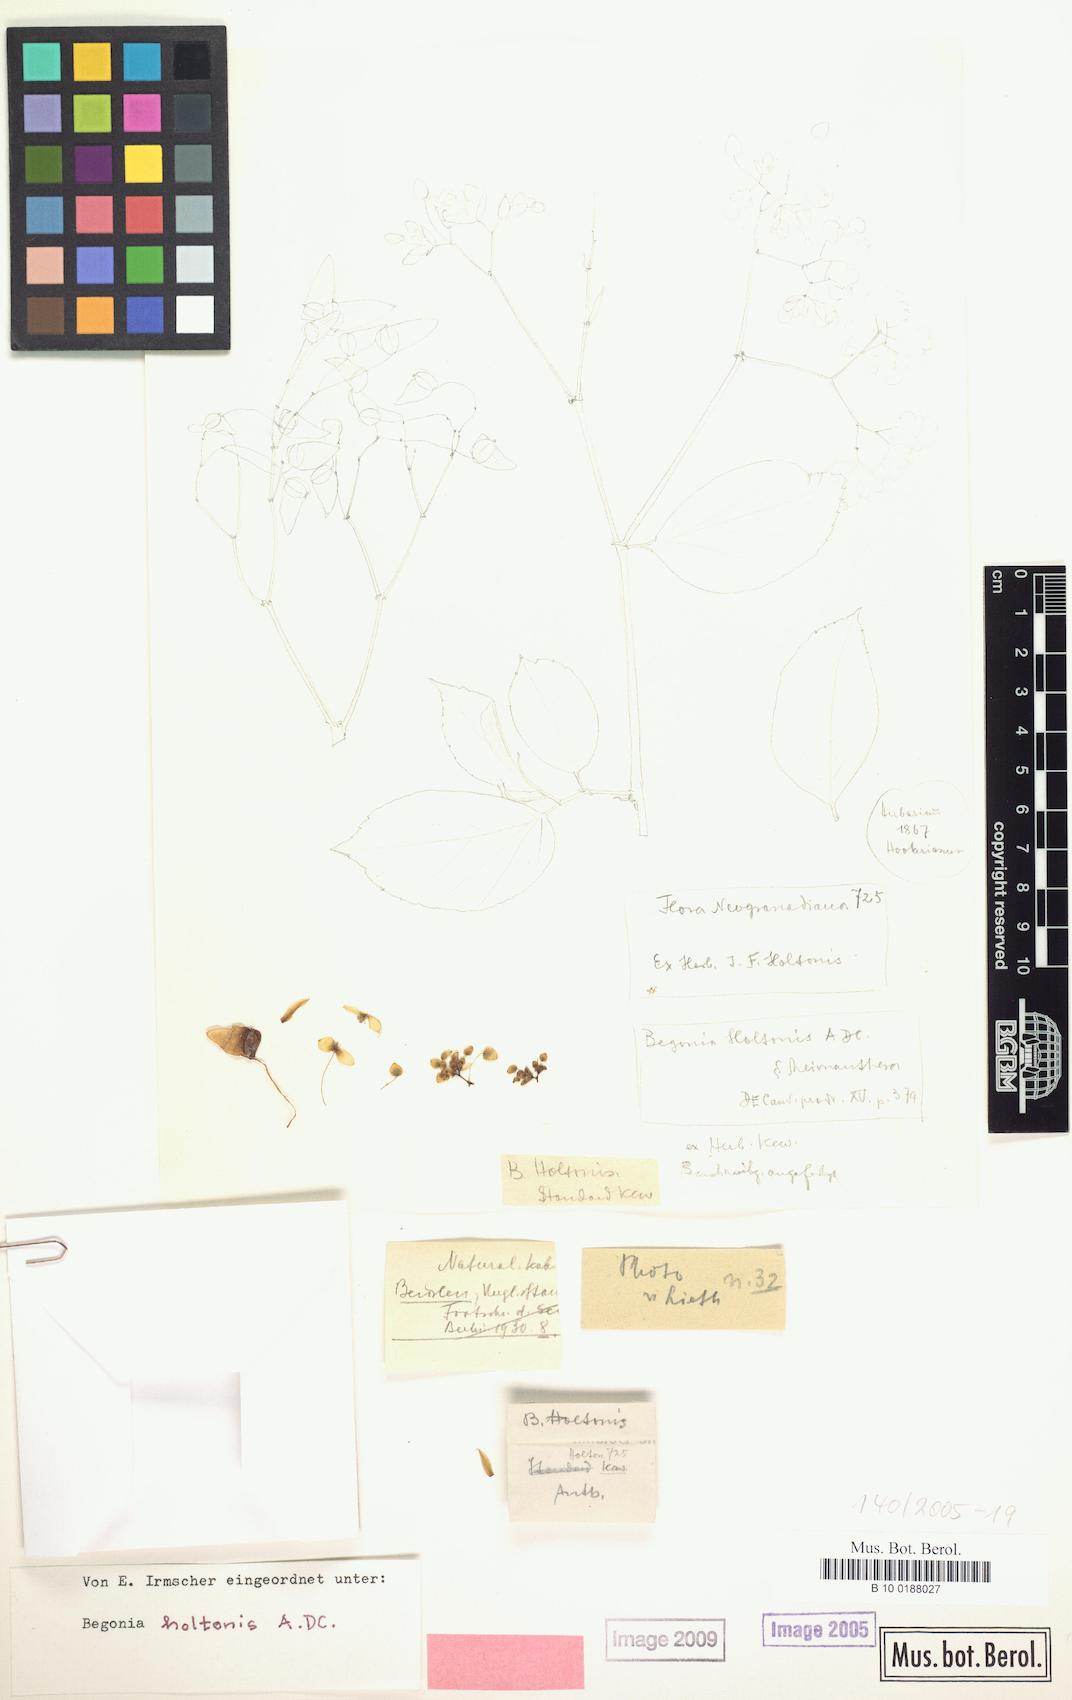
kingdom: Plantae
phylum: Tracheophyta
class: Magnoliopsida
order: Cucurbitales
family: Begoniaceae
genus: Begonia
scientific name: Begonia holtonis
